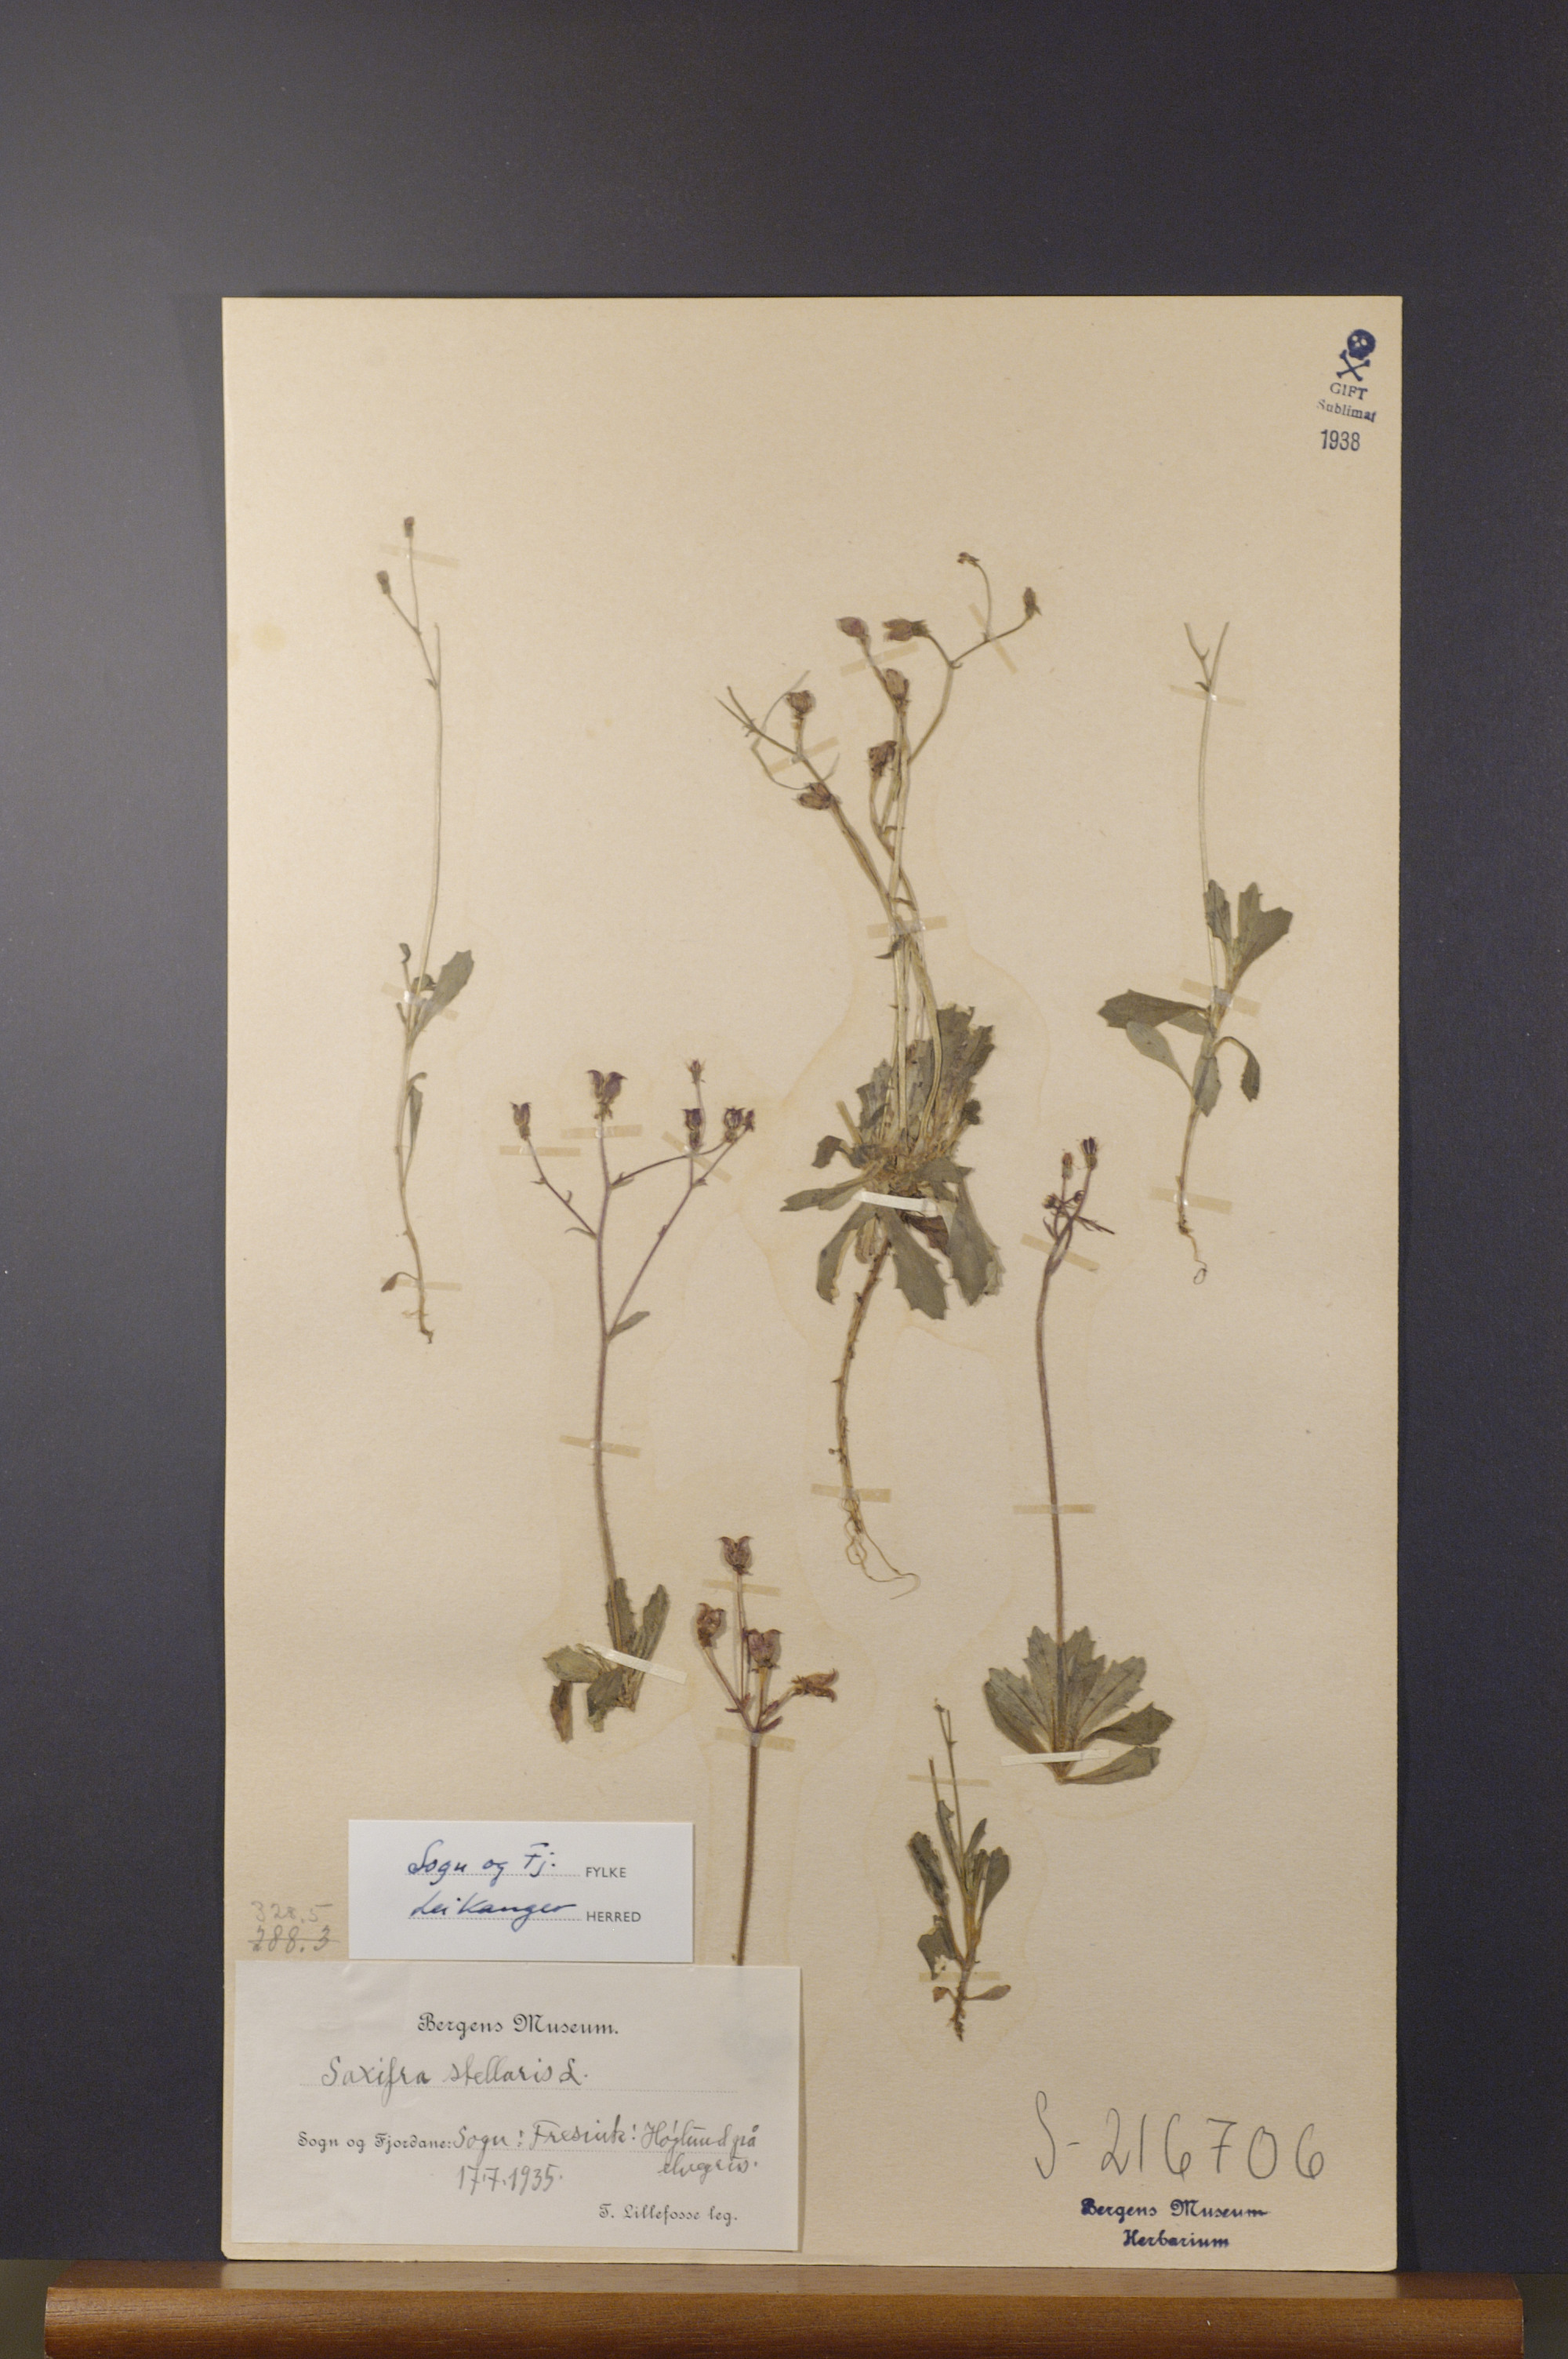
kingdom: Plantae
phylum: Tracheophyta
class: Magnoliopsida
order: Saxifragales
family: Saxifragaceae
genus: Micranthes
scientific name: Micranthes stellaris
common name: Starry saxifrage
